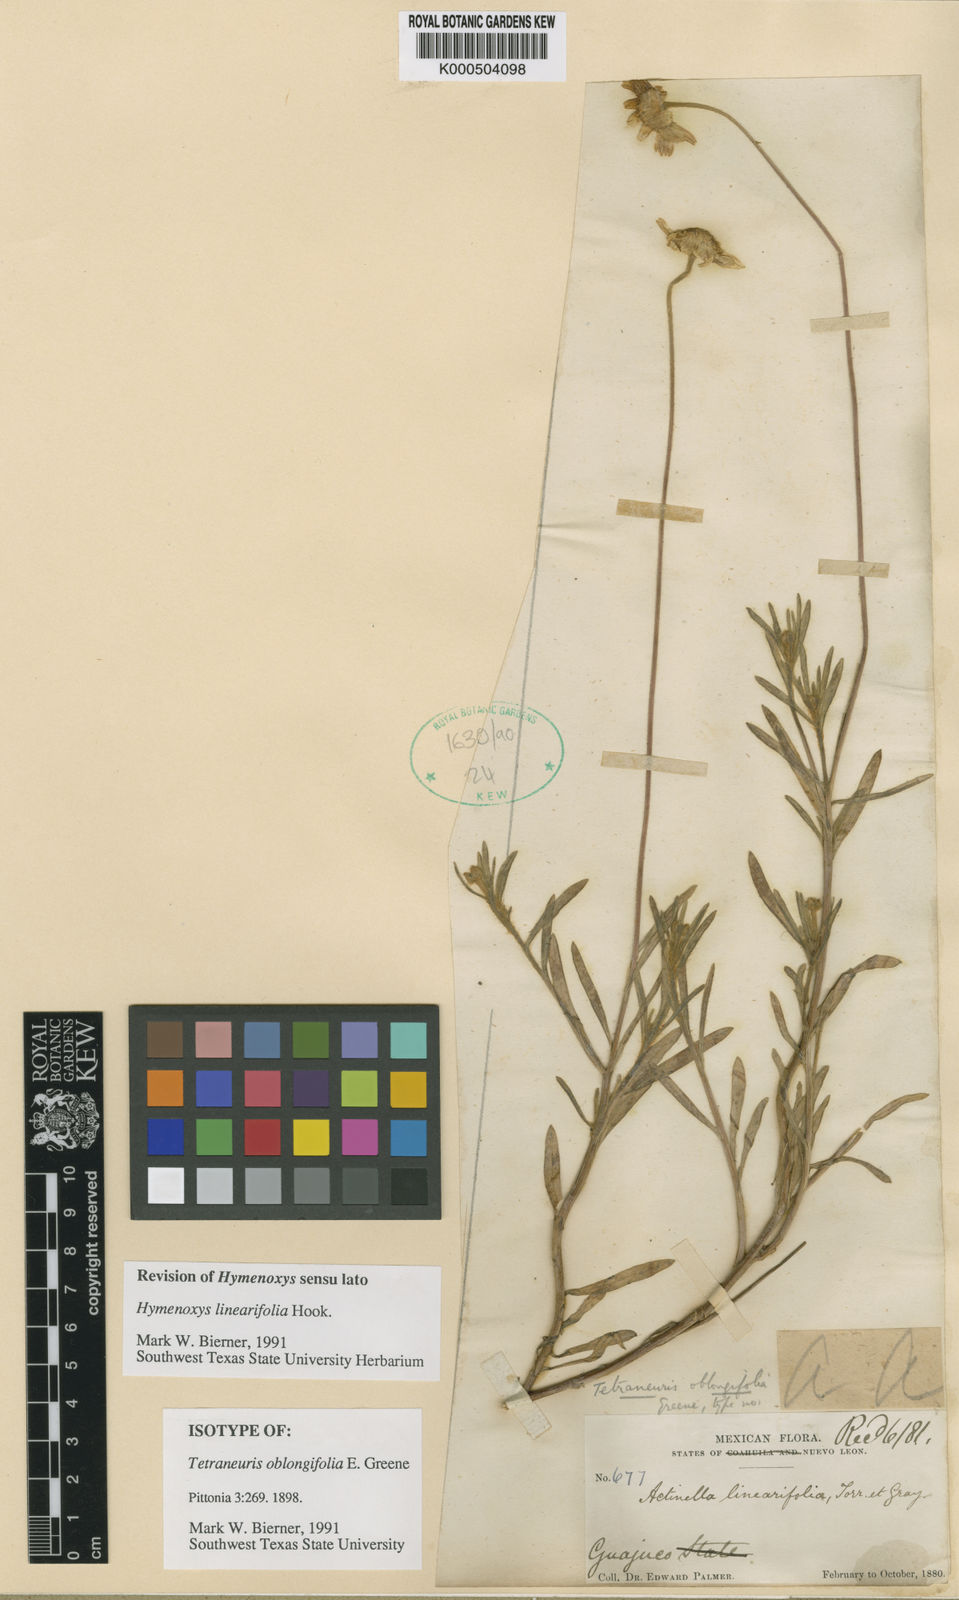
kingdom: Plantae
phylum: Tracheophyta
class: Magnoliopsida
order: Asterales
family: Asteraceae
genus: Tetraneuris
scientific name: Tetraneuris linearifolia
